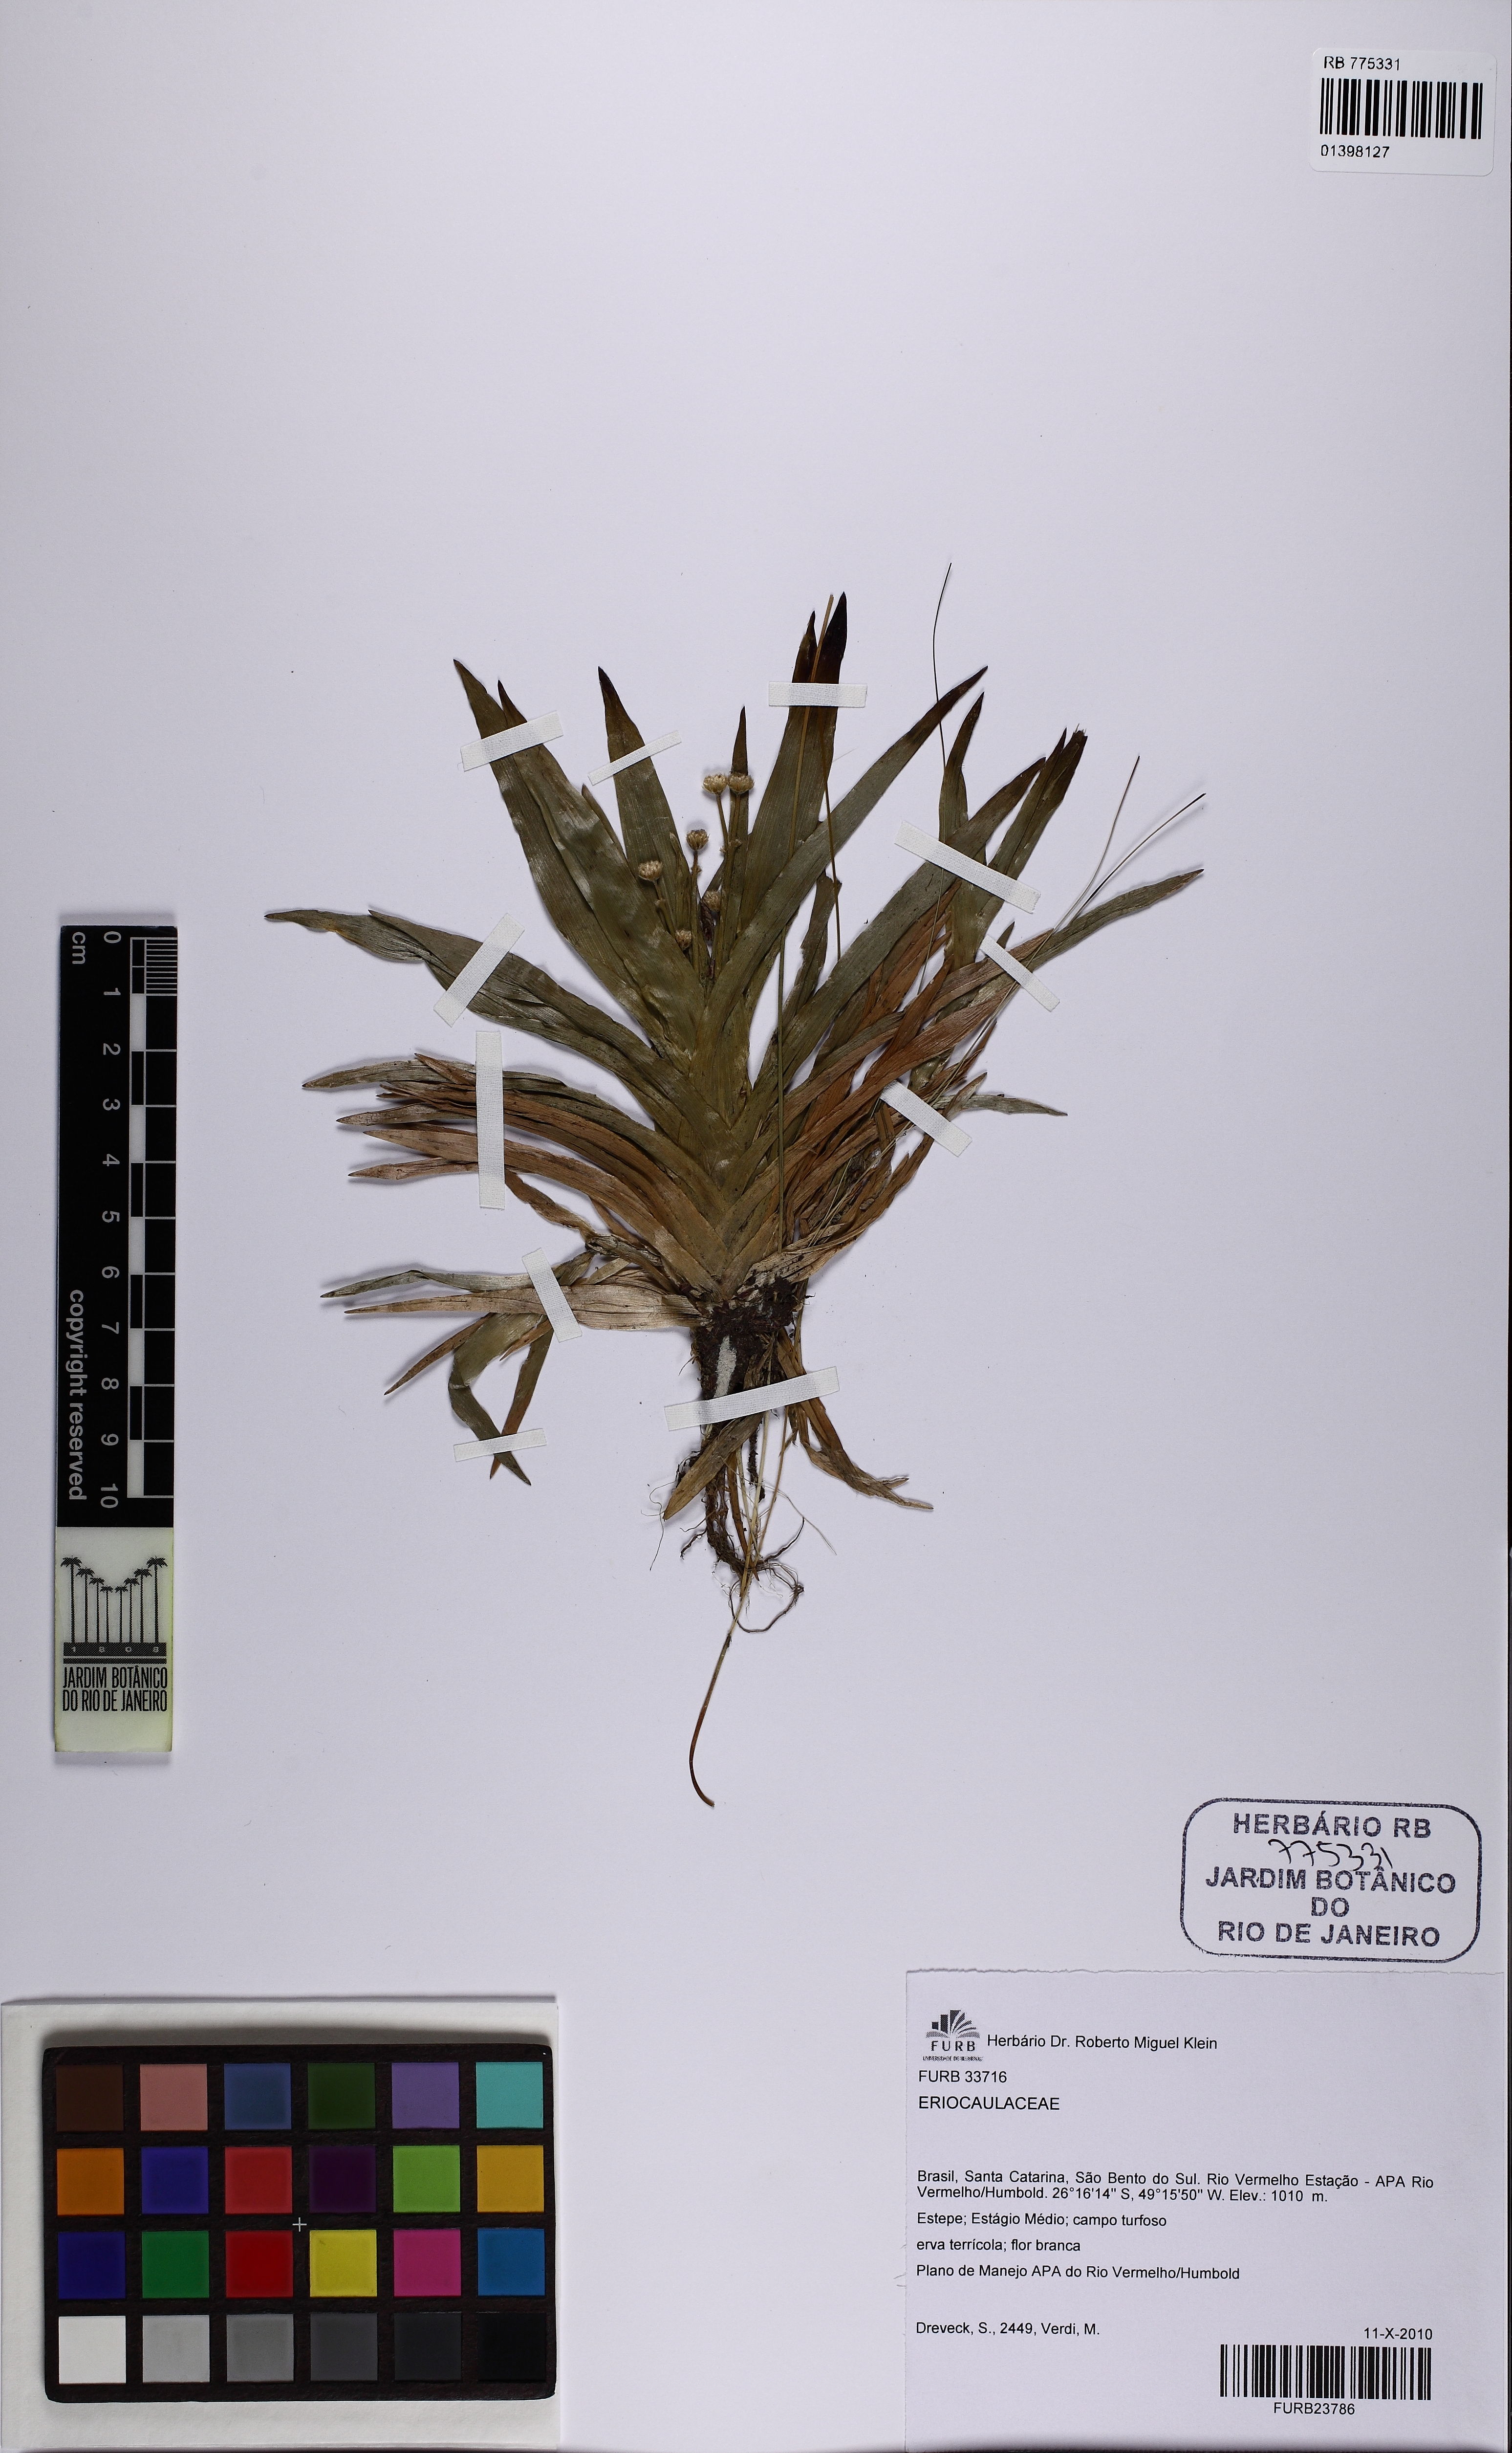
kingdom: Plantae
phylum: Tracheophyta
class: Liliopsida
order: Poales
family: Eriocaulaceae
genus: Paepalanthus
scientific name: Paepalanthus catharinae
